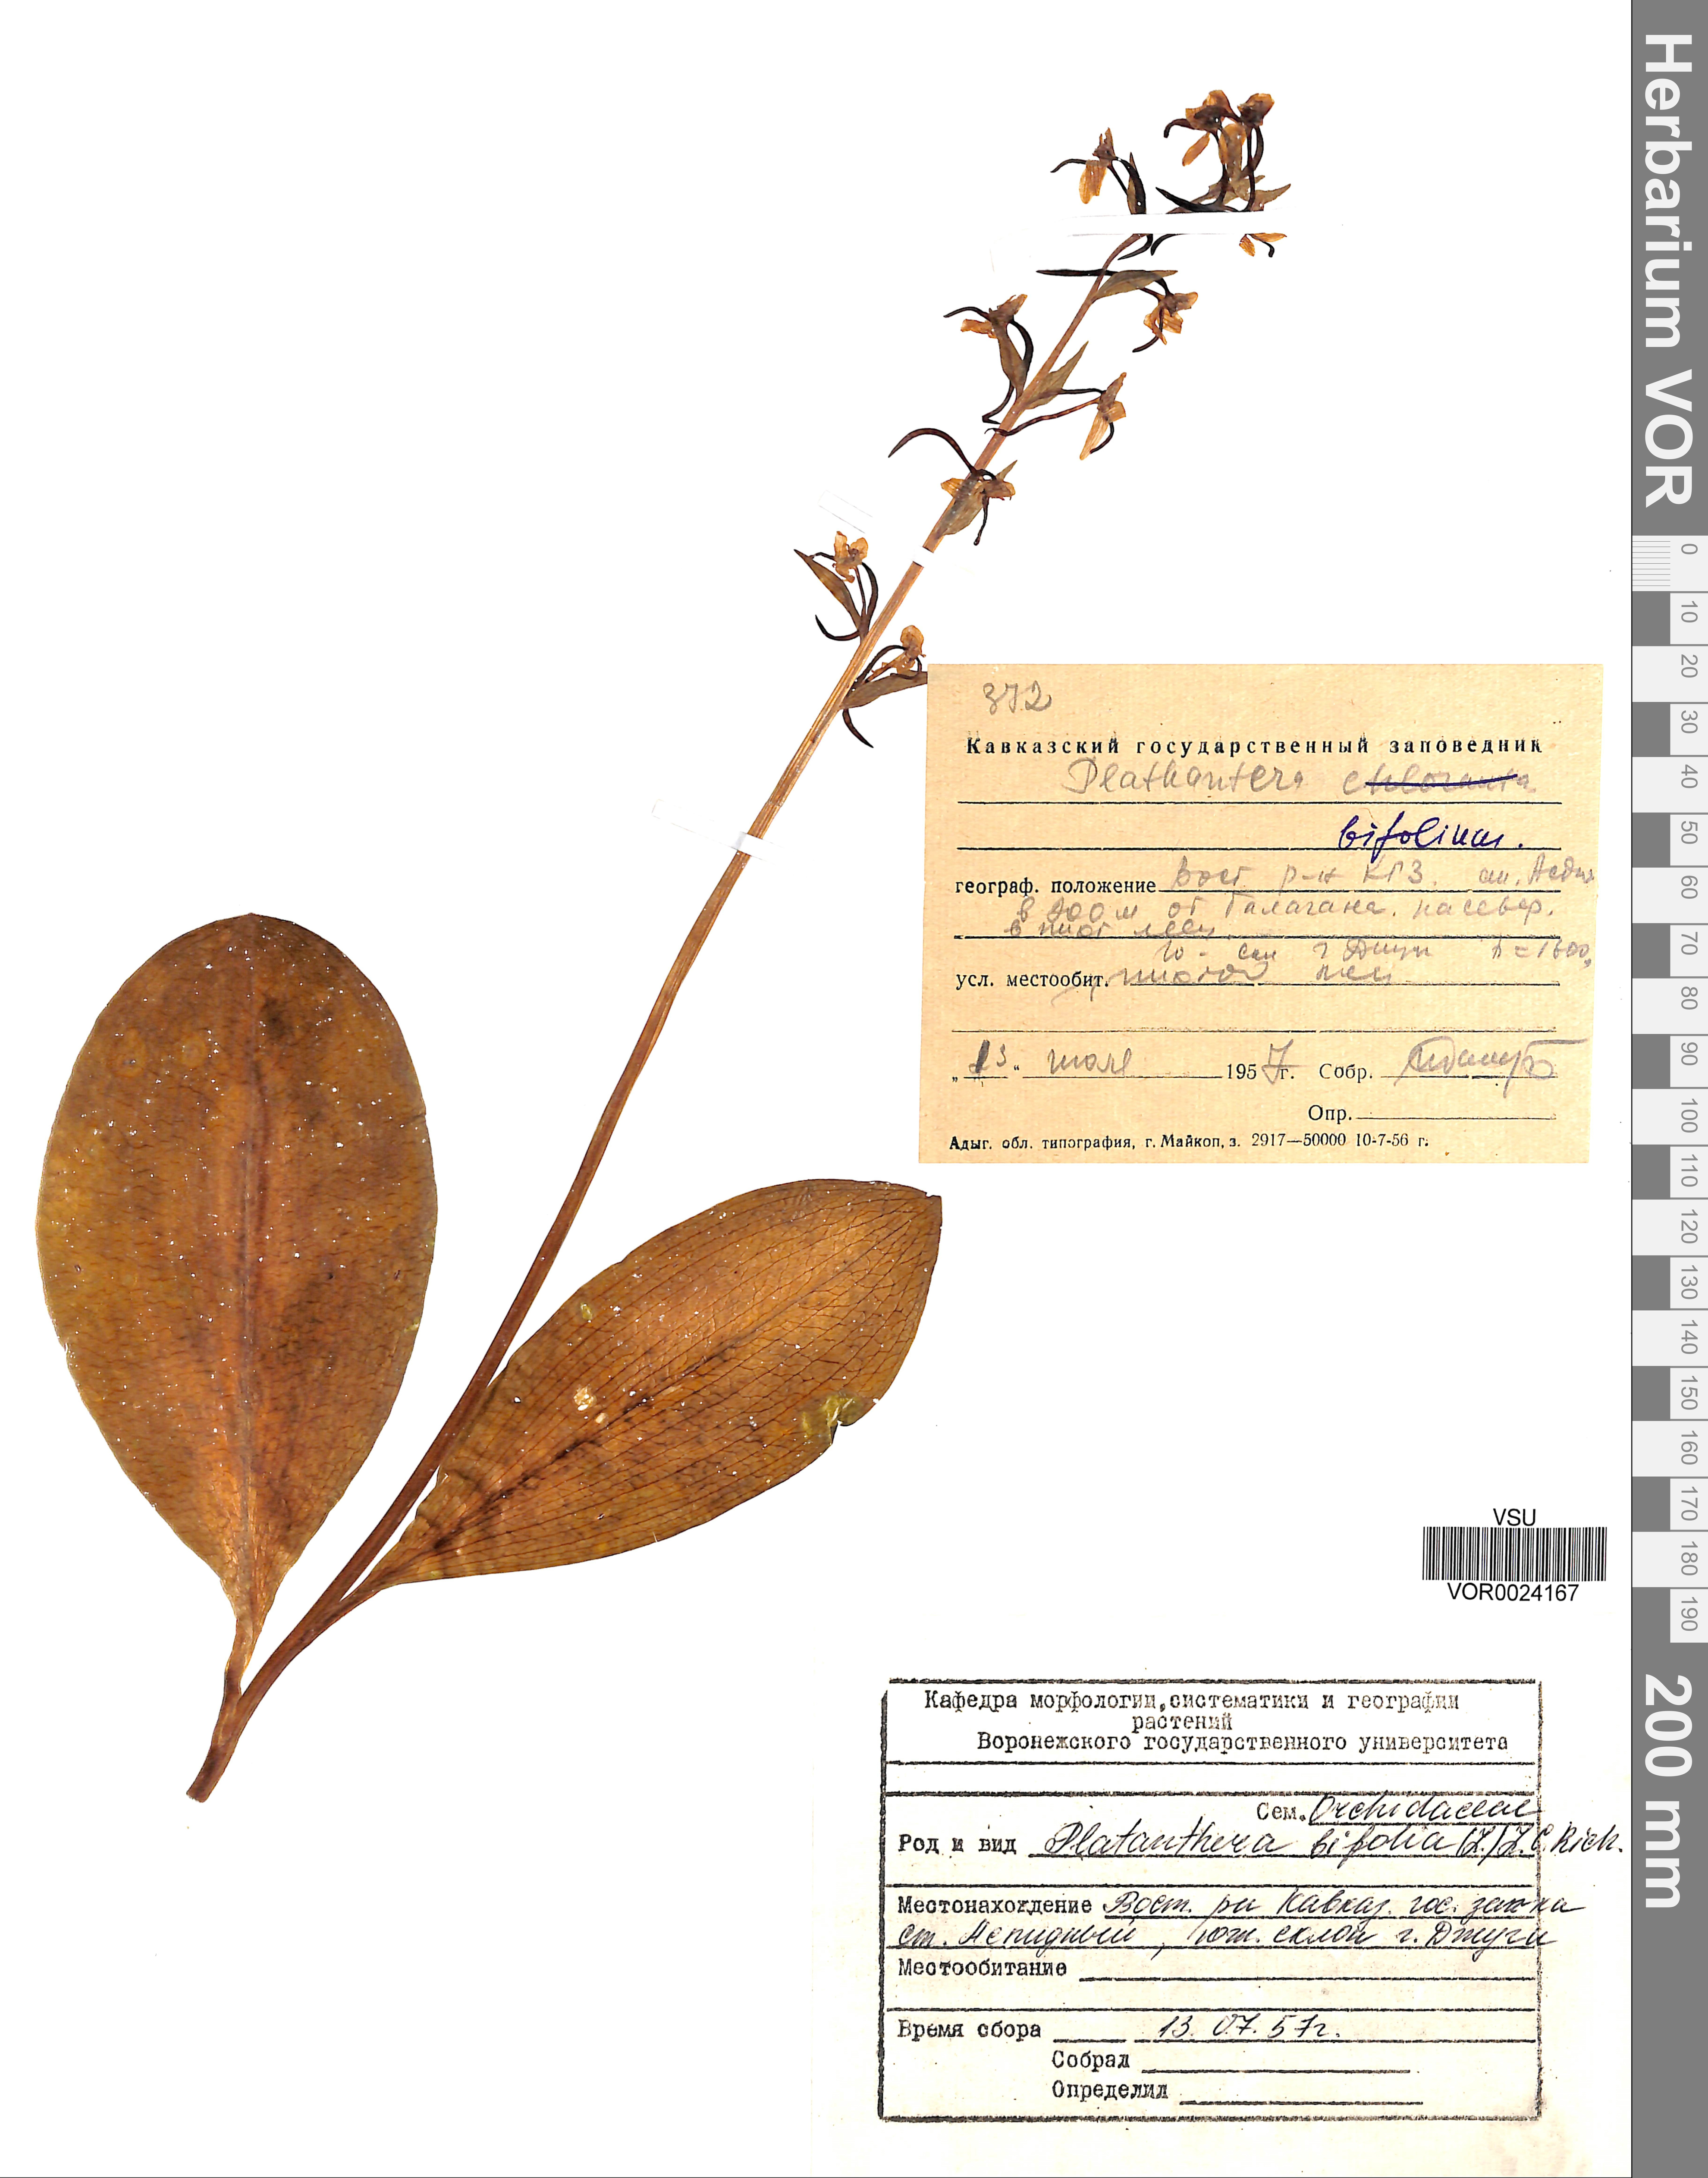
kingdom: Plantae
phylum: Tracheophyta
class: Liliopsida
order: Asparagales
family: Orchidaceae
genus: Platanthera
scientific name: Platanthera bifolia
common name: Lesser butterfly-orchid
